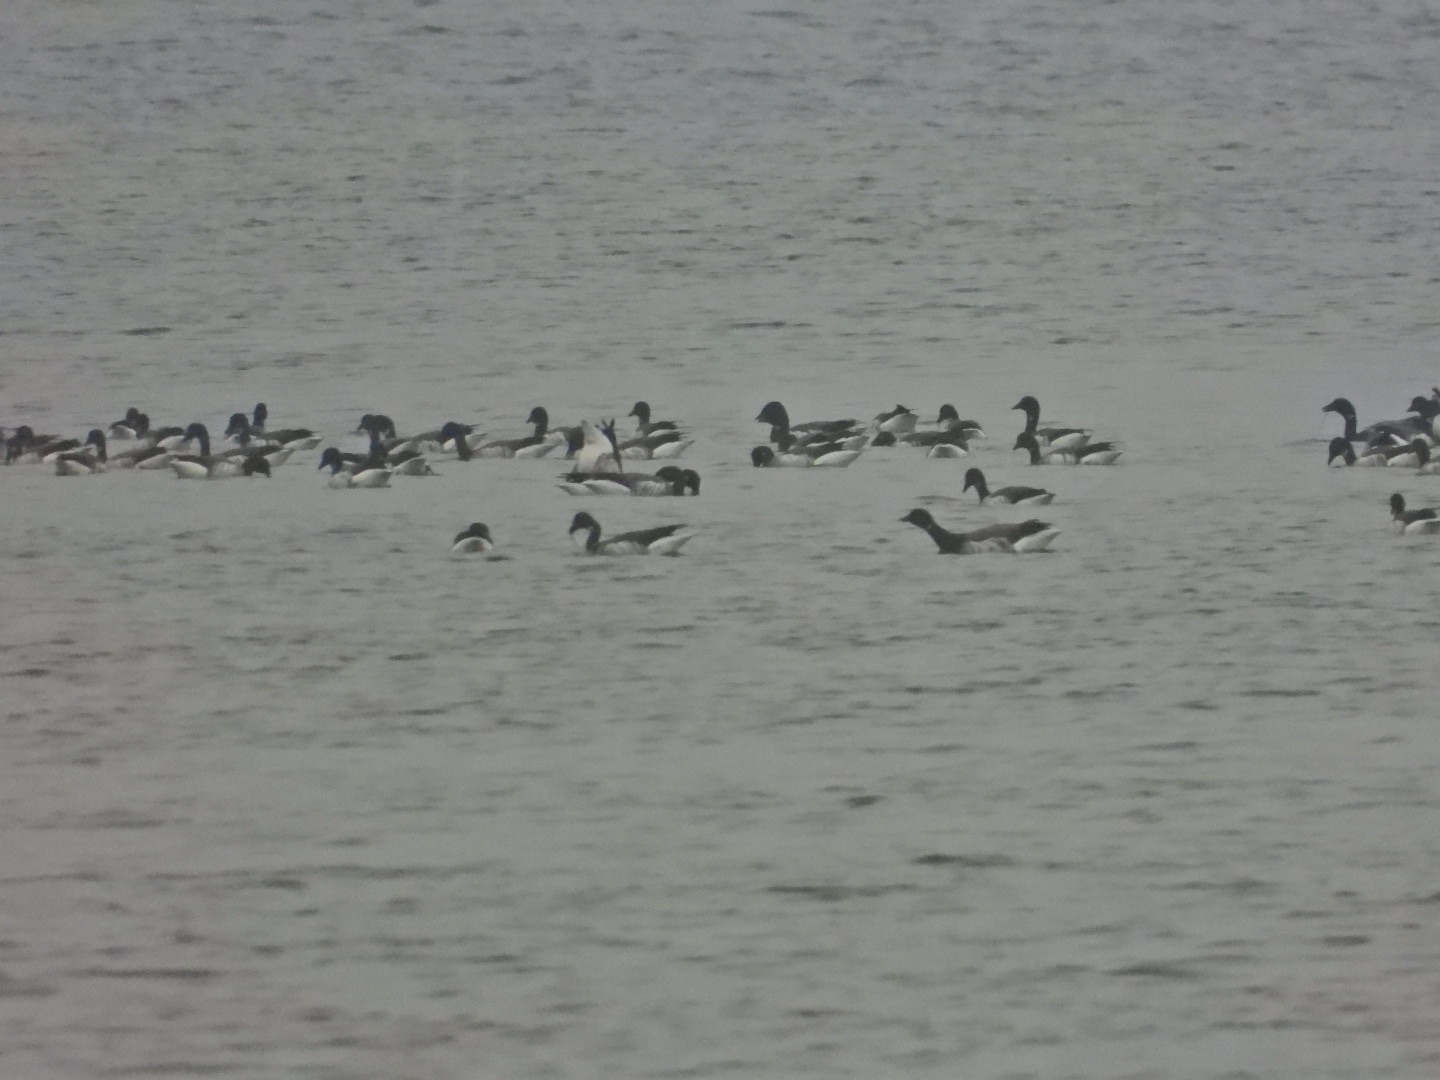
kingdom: Animalia
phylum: Chordata
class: Aves
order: Anseriformes
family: Anatidae
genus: Branta
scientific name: Branta bernicla
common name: Lysbuget knortegås
